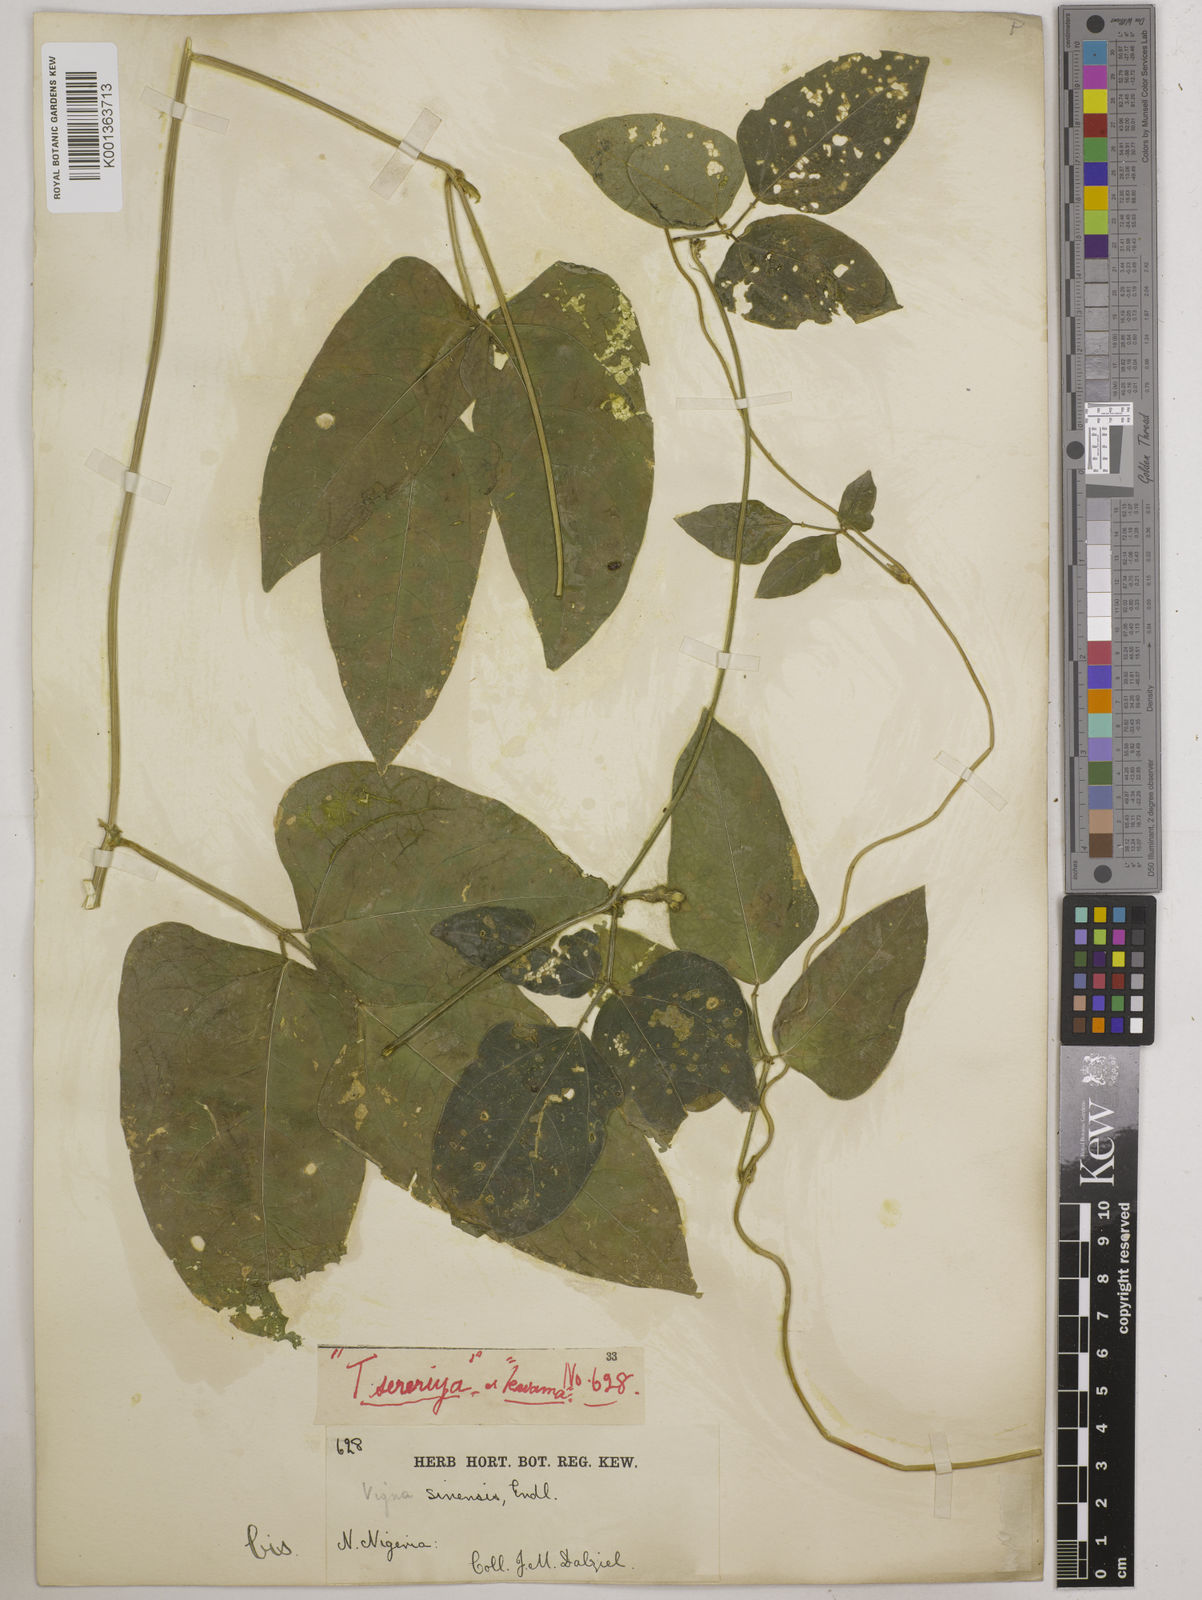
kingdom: Plantae
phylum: Tracheophyta
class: Magnoliopsida
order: Fabales
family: Fabaceae
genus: Vigna
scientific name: Vigna unguiculata
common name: Cowpea
